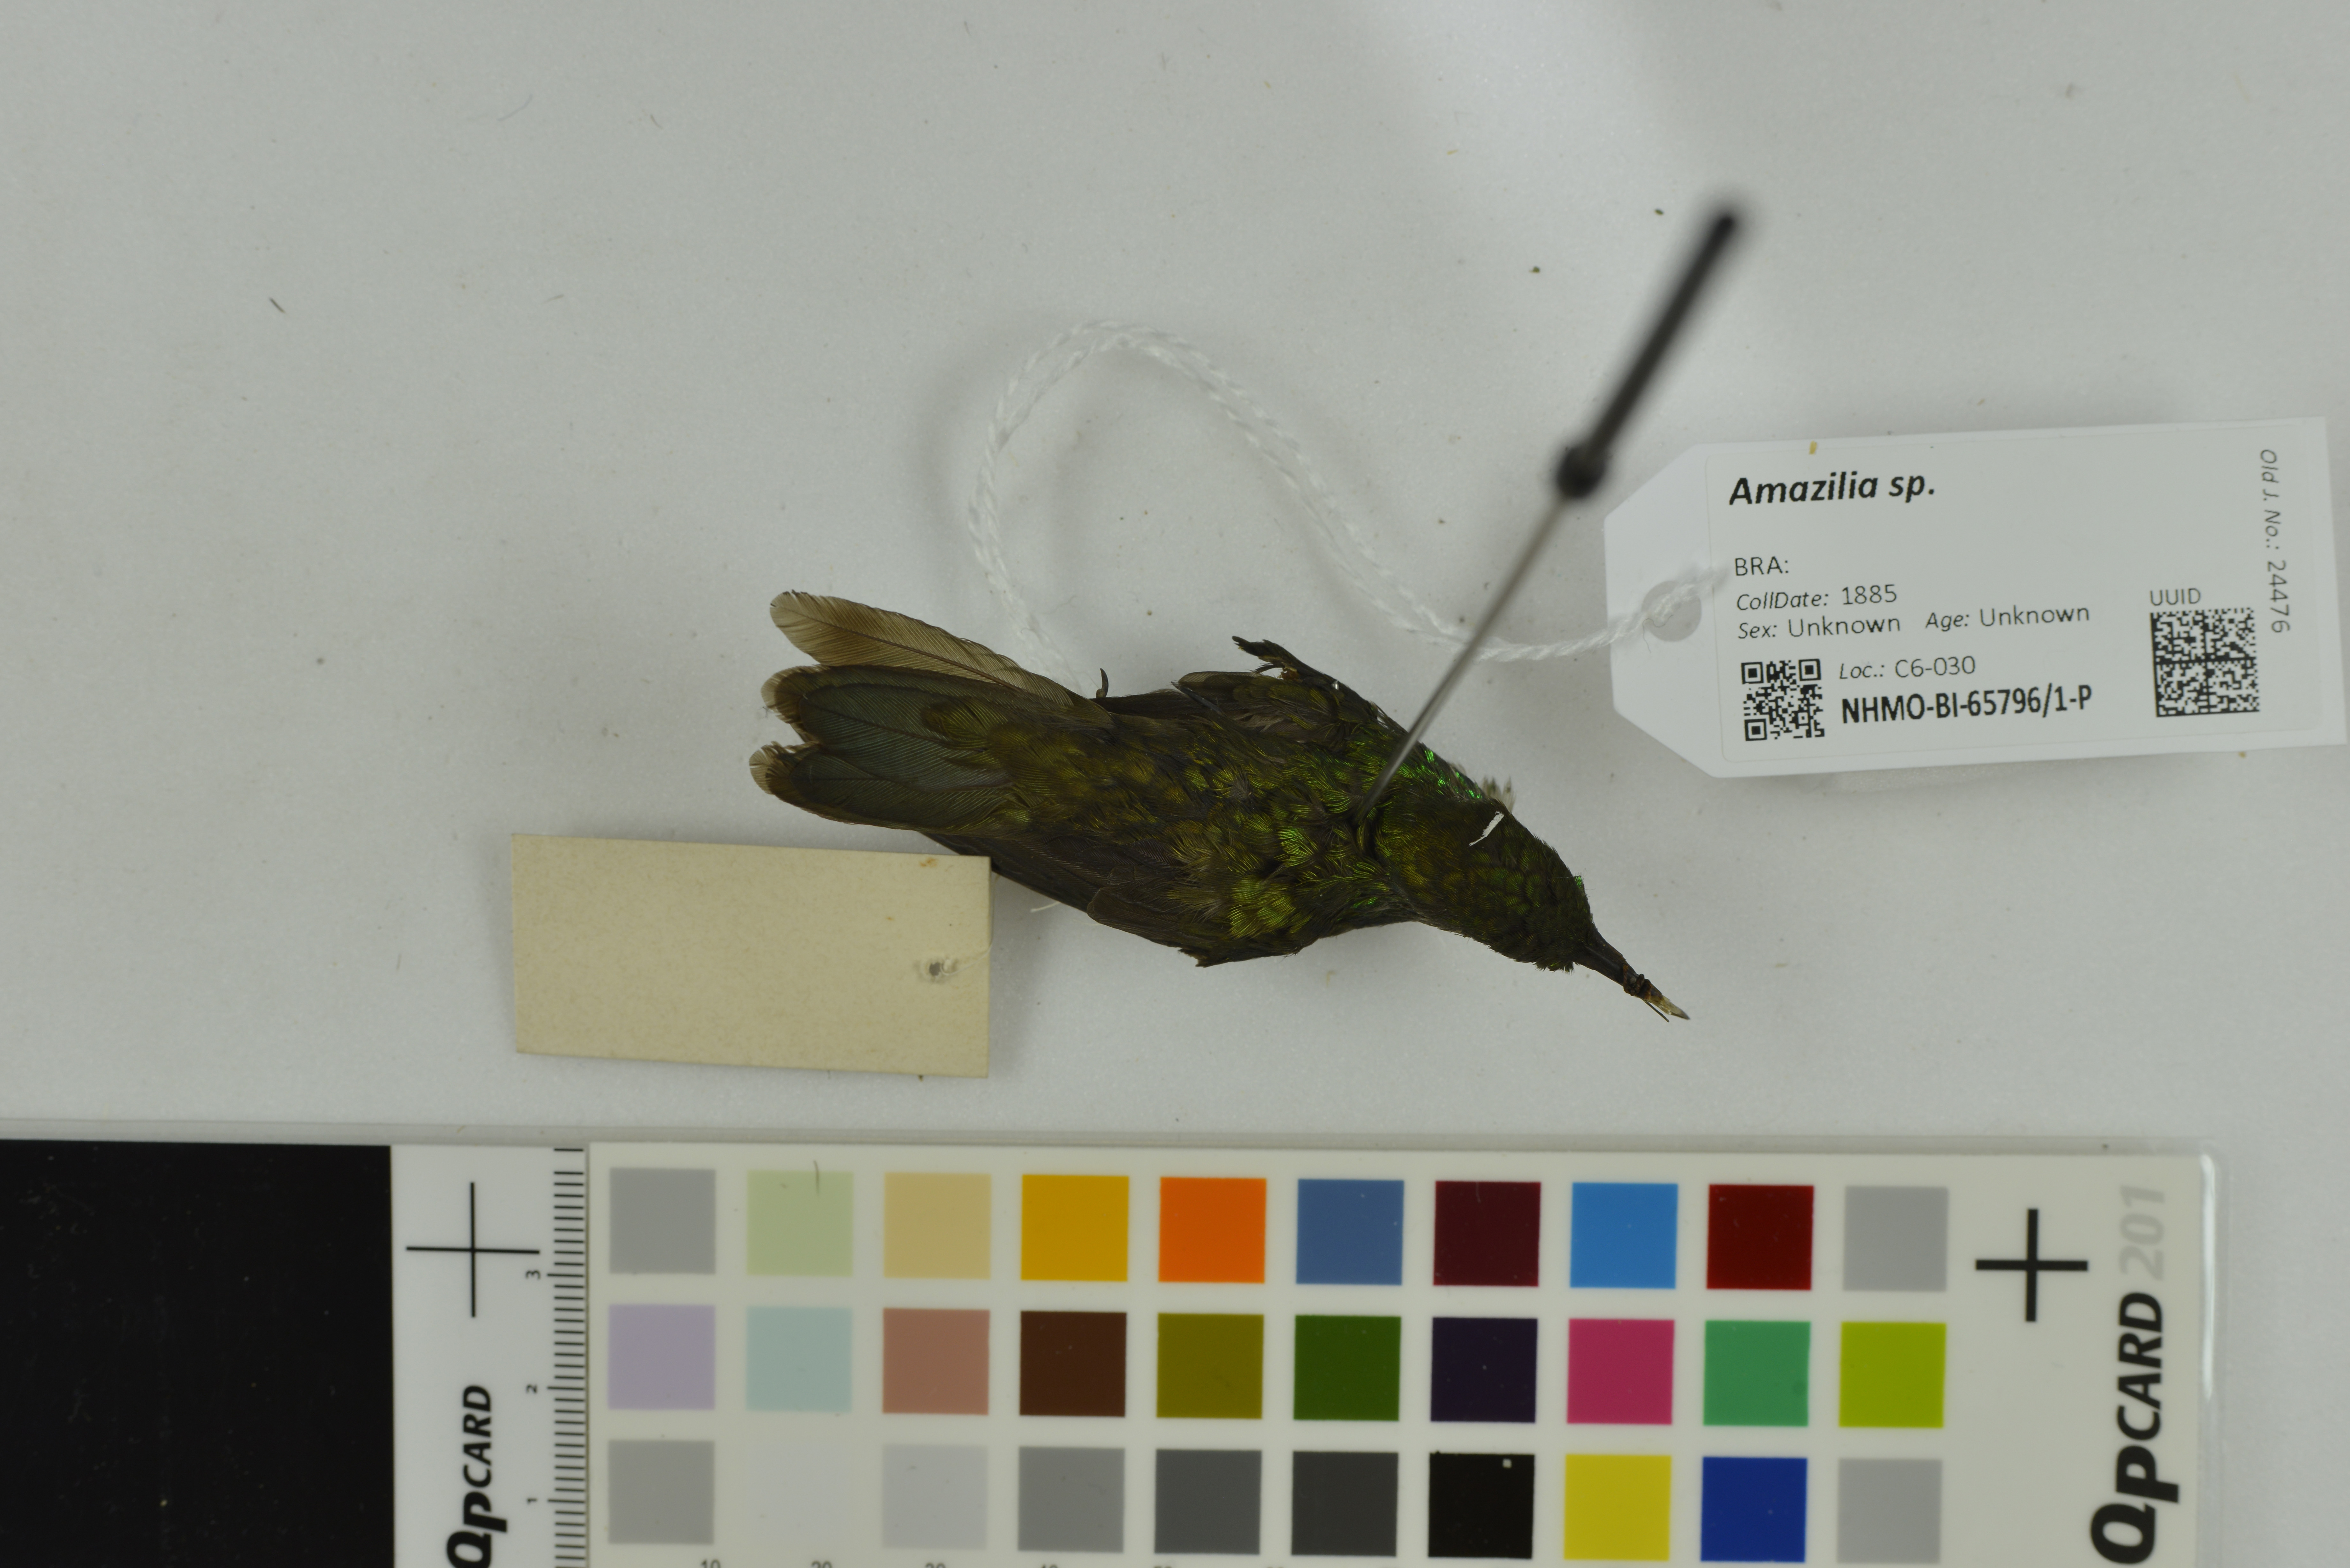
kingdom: Animalia
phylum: Chordata
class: Aves
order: Apodiformes
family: Trochilidae
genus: Amazilia
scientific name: Amazilia
